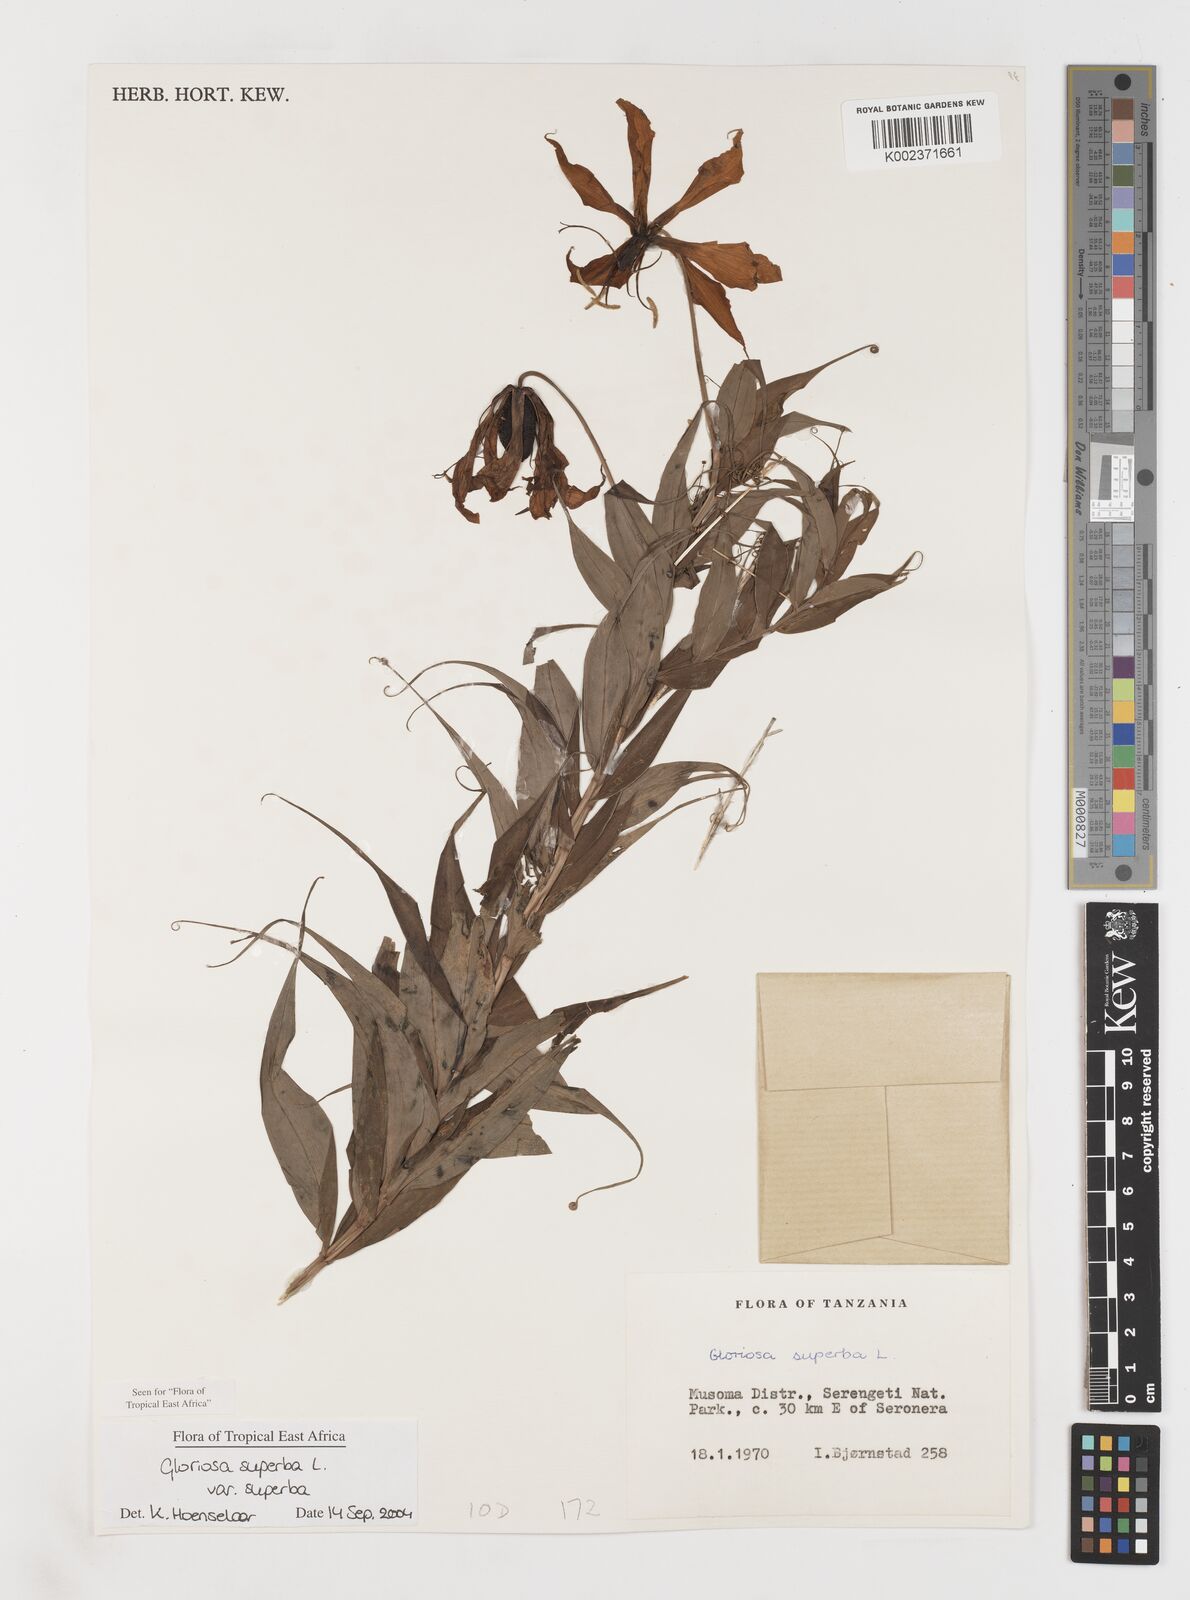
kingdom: Plantae
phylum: Tracheophyta
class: Liliopsida
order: Liliales
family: Colchicaceae
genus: Gloriosa
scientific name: Gloriosa simplex
